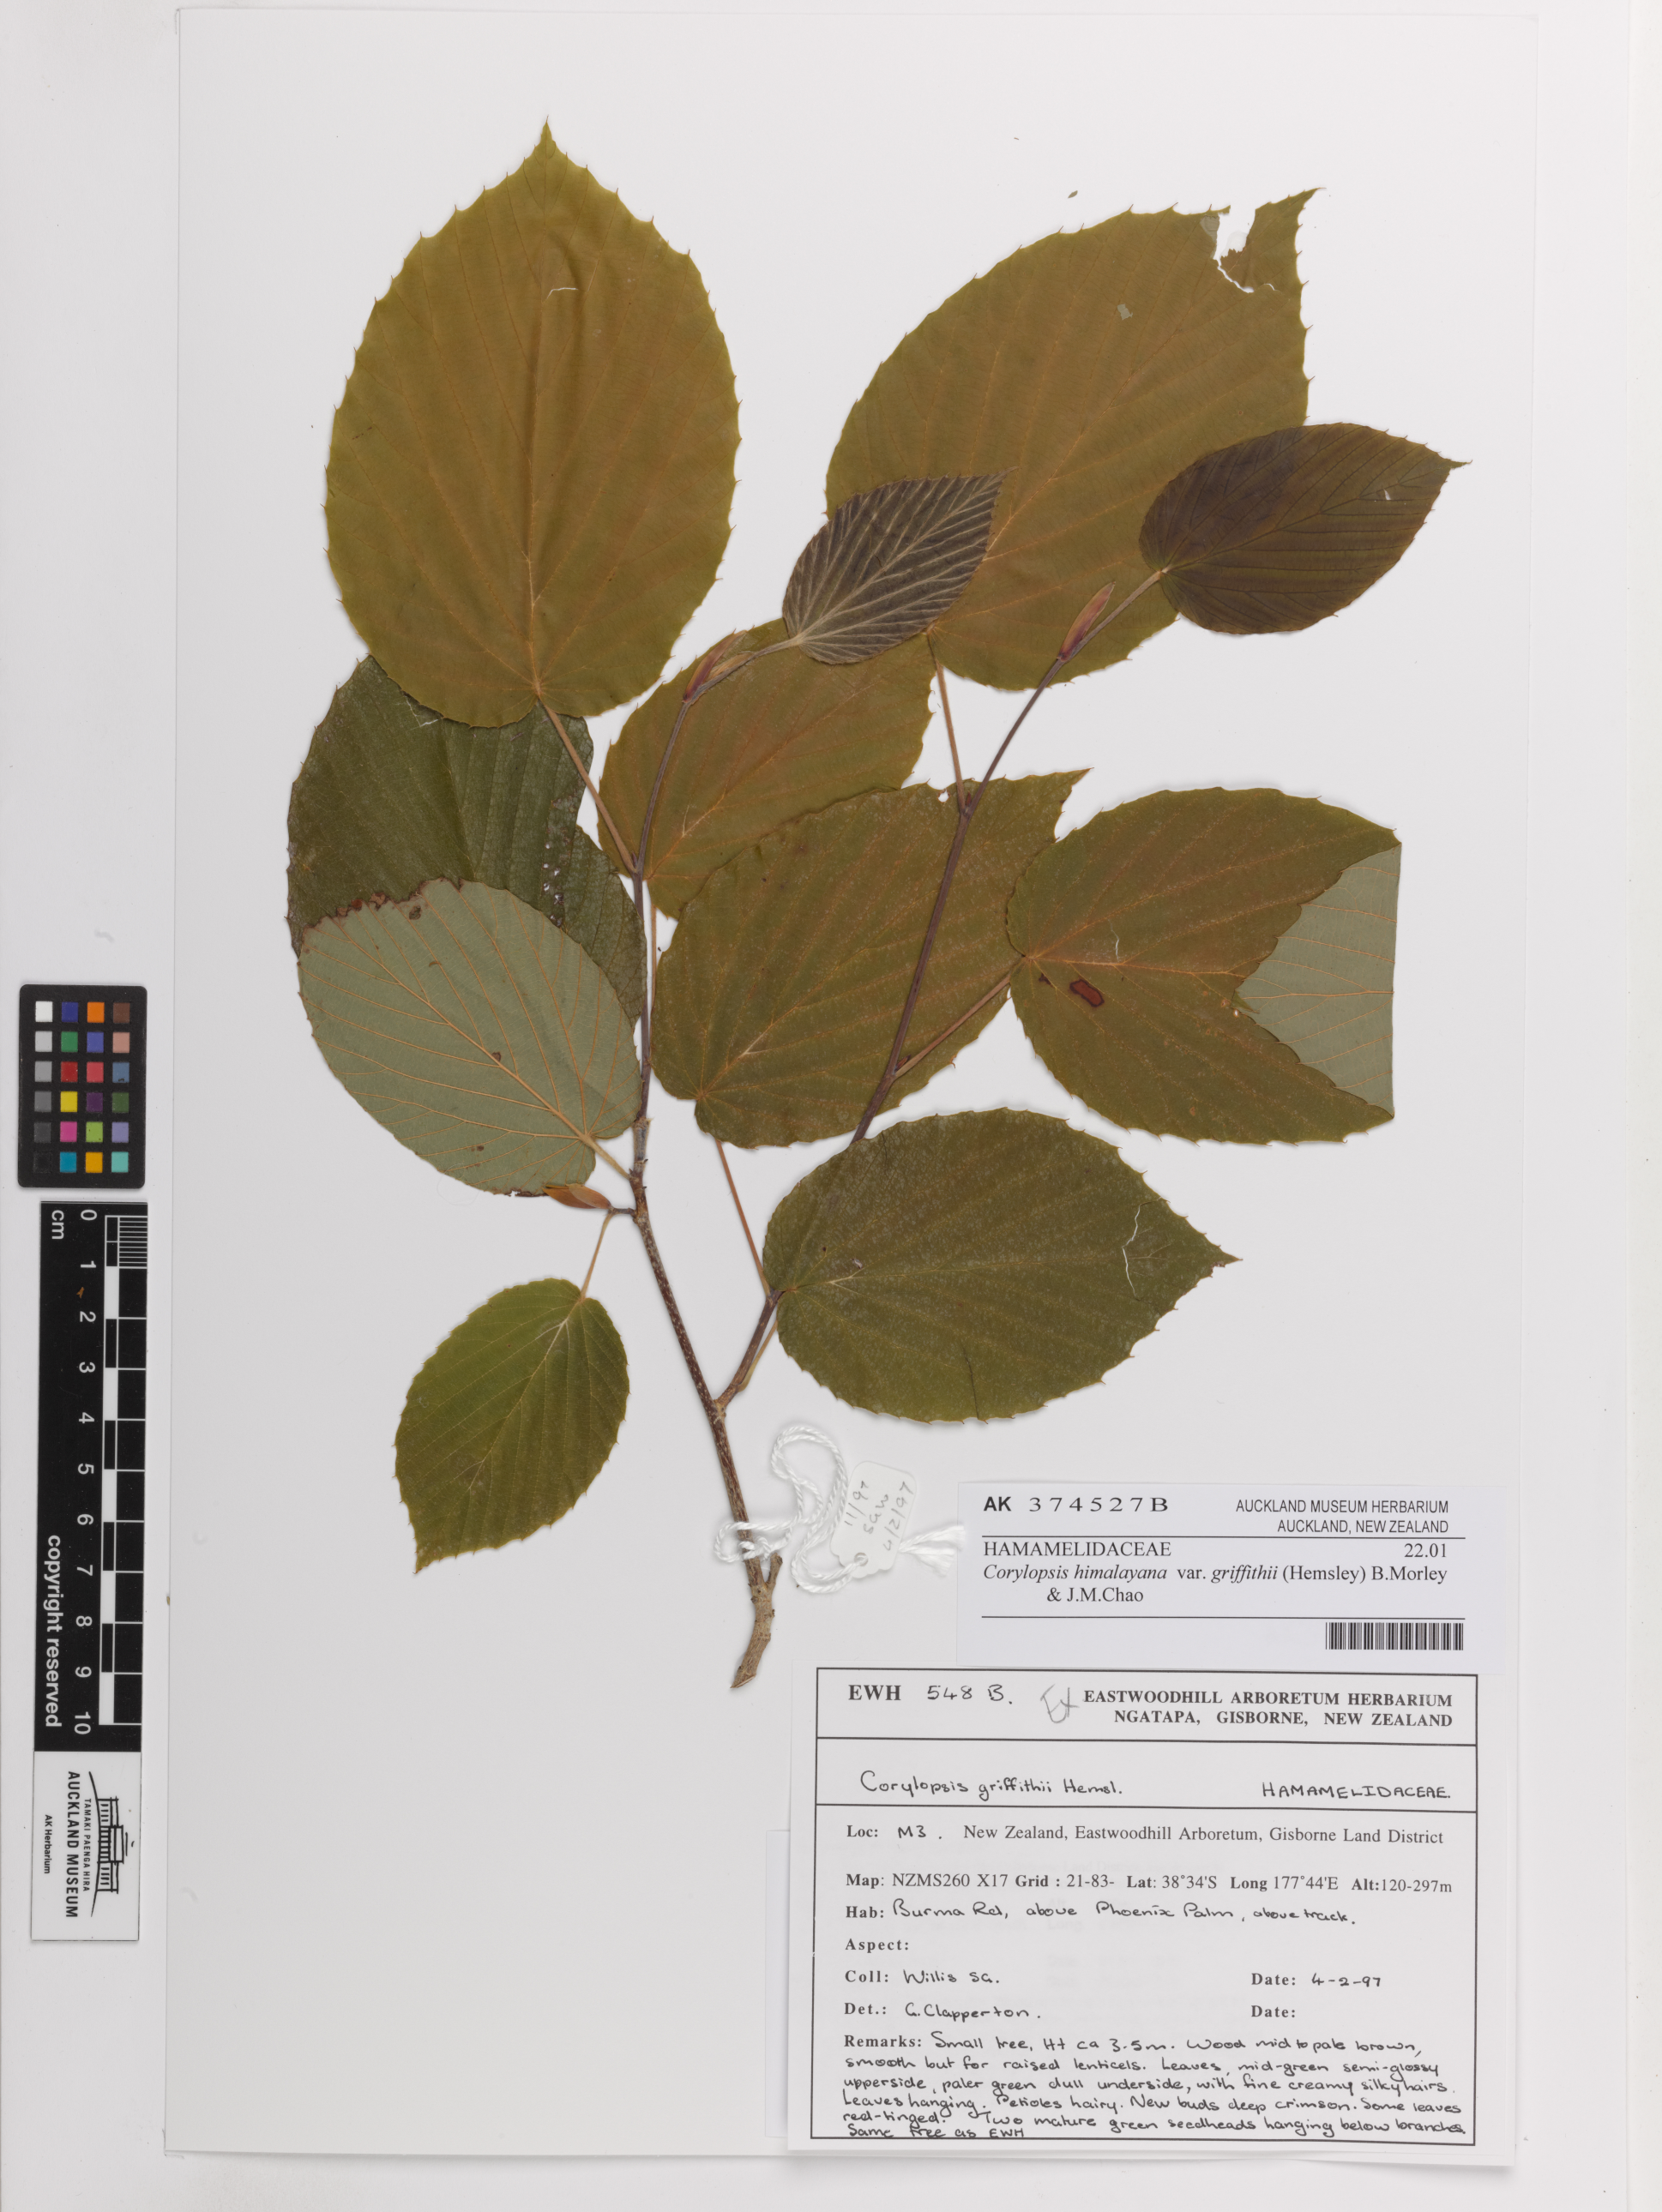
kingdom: Plantae
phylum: Tracheophyta
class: Magnoliopsida
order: Saxifragales
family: Hamamelidaceae
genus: Corylopsis
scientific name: Corylopsis himalayana
